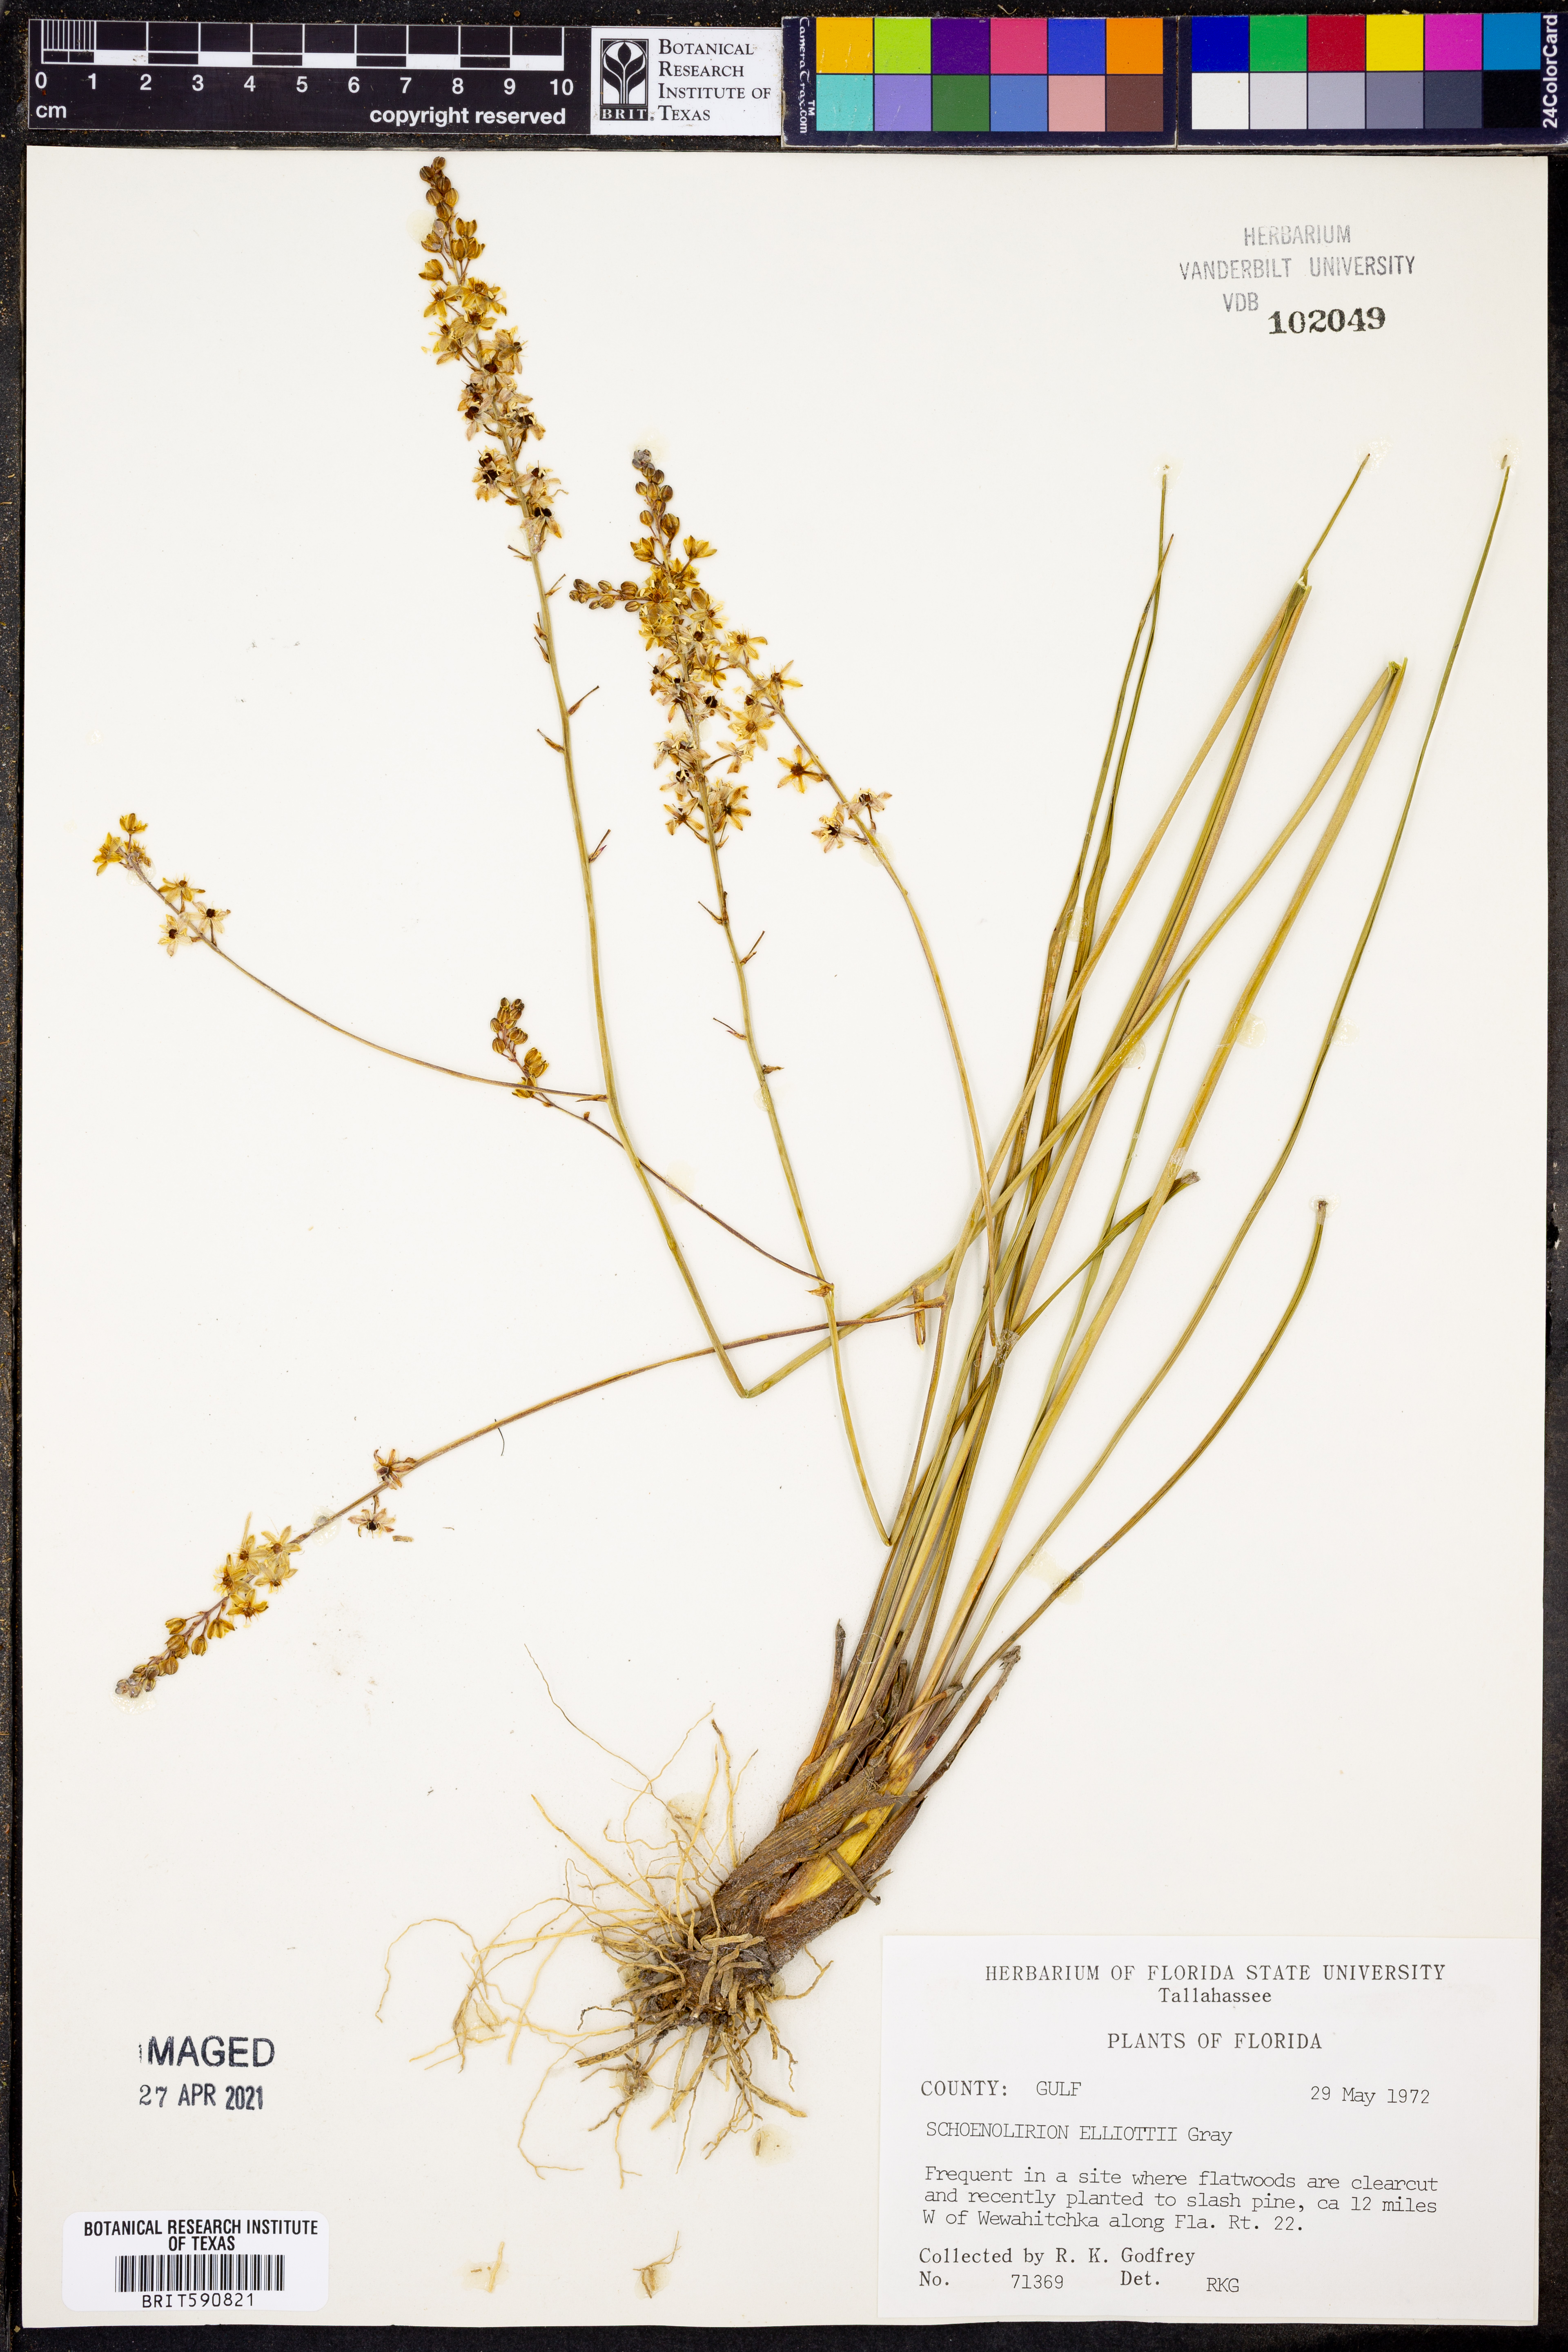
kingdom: Plantae
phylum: Tracheophyta
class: Liliopsida
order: Asparagales
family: Asparagaceae
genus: Schoenolirion
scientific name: Schoenolirion albiflorum
